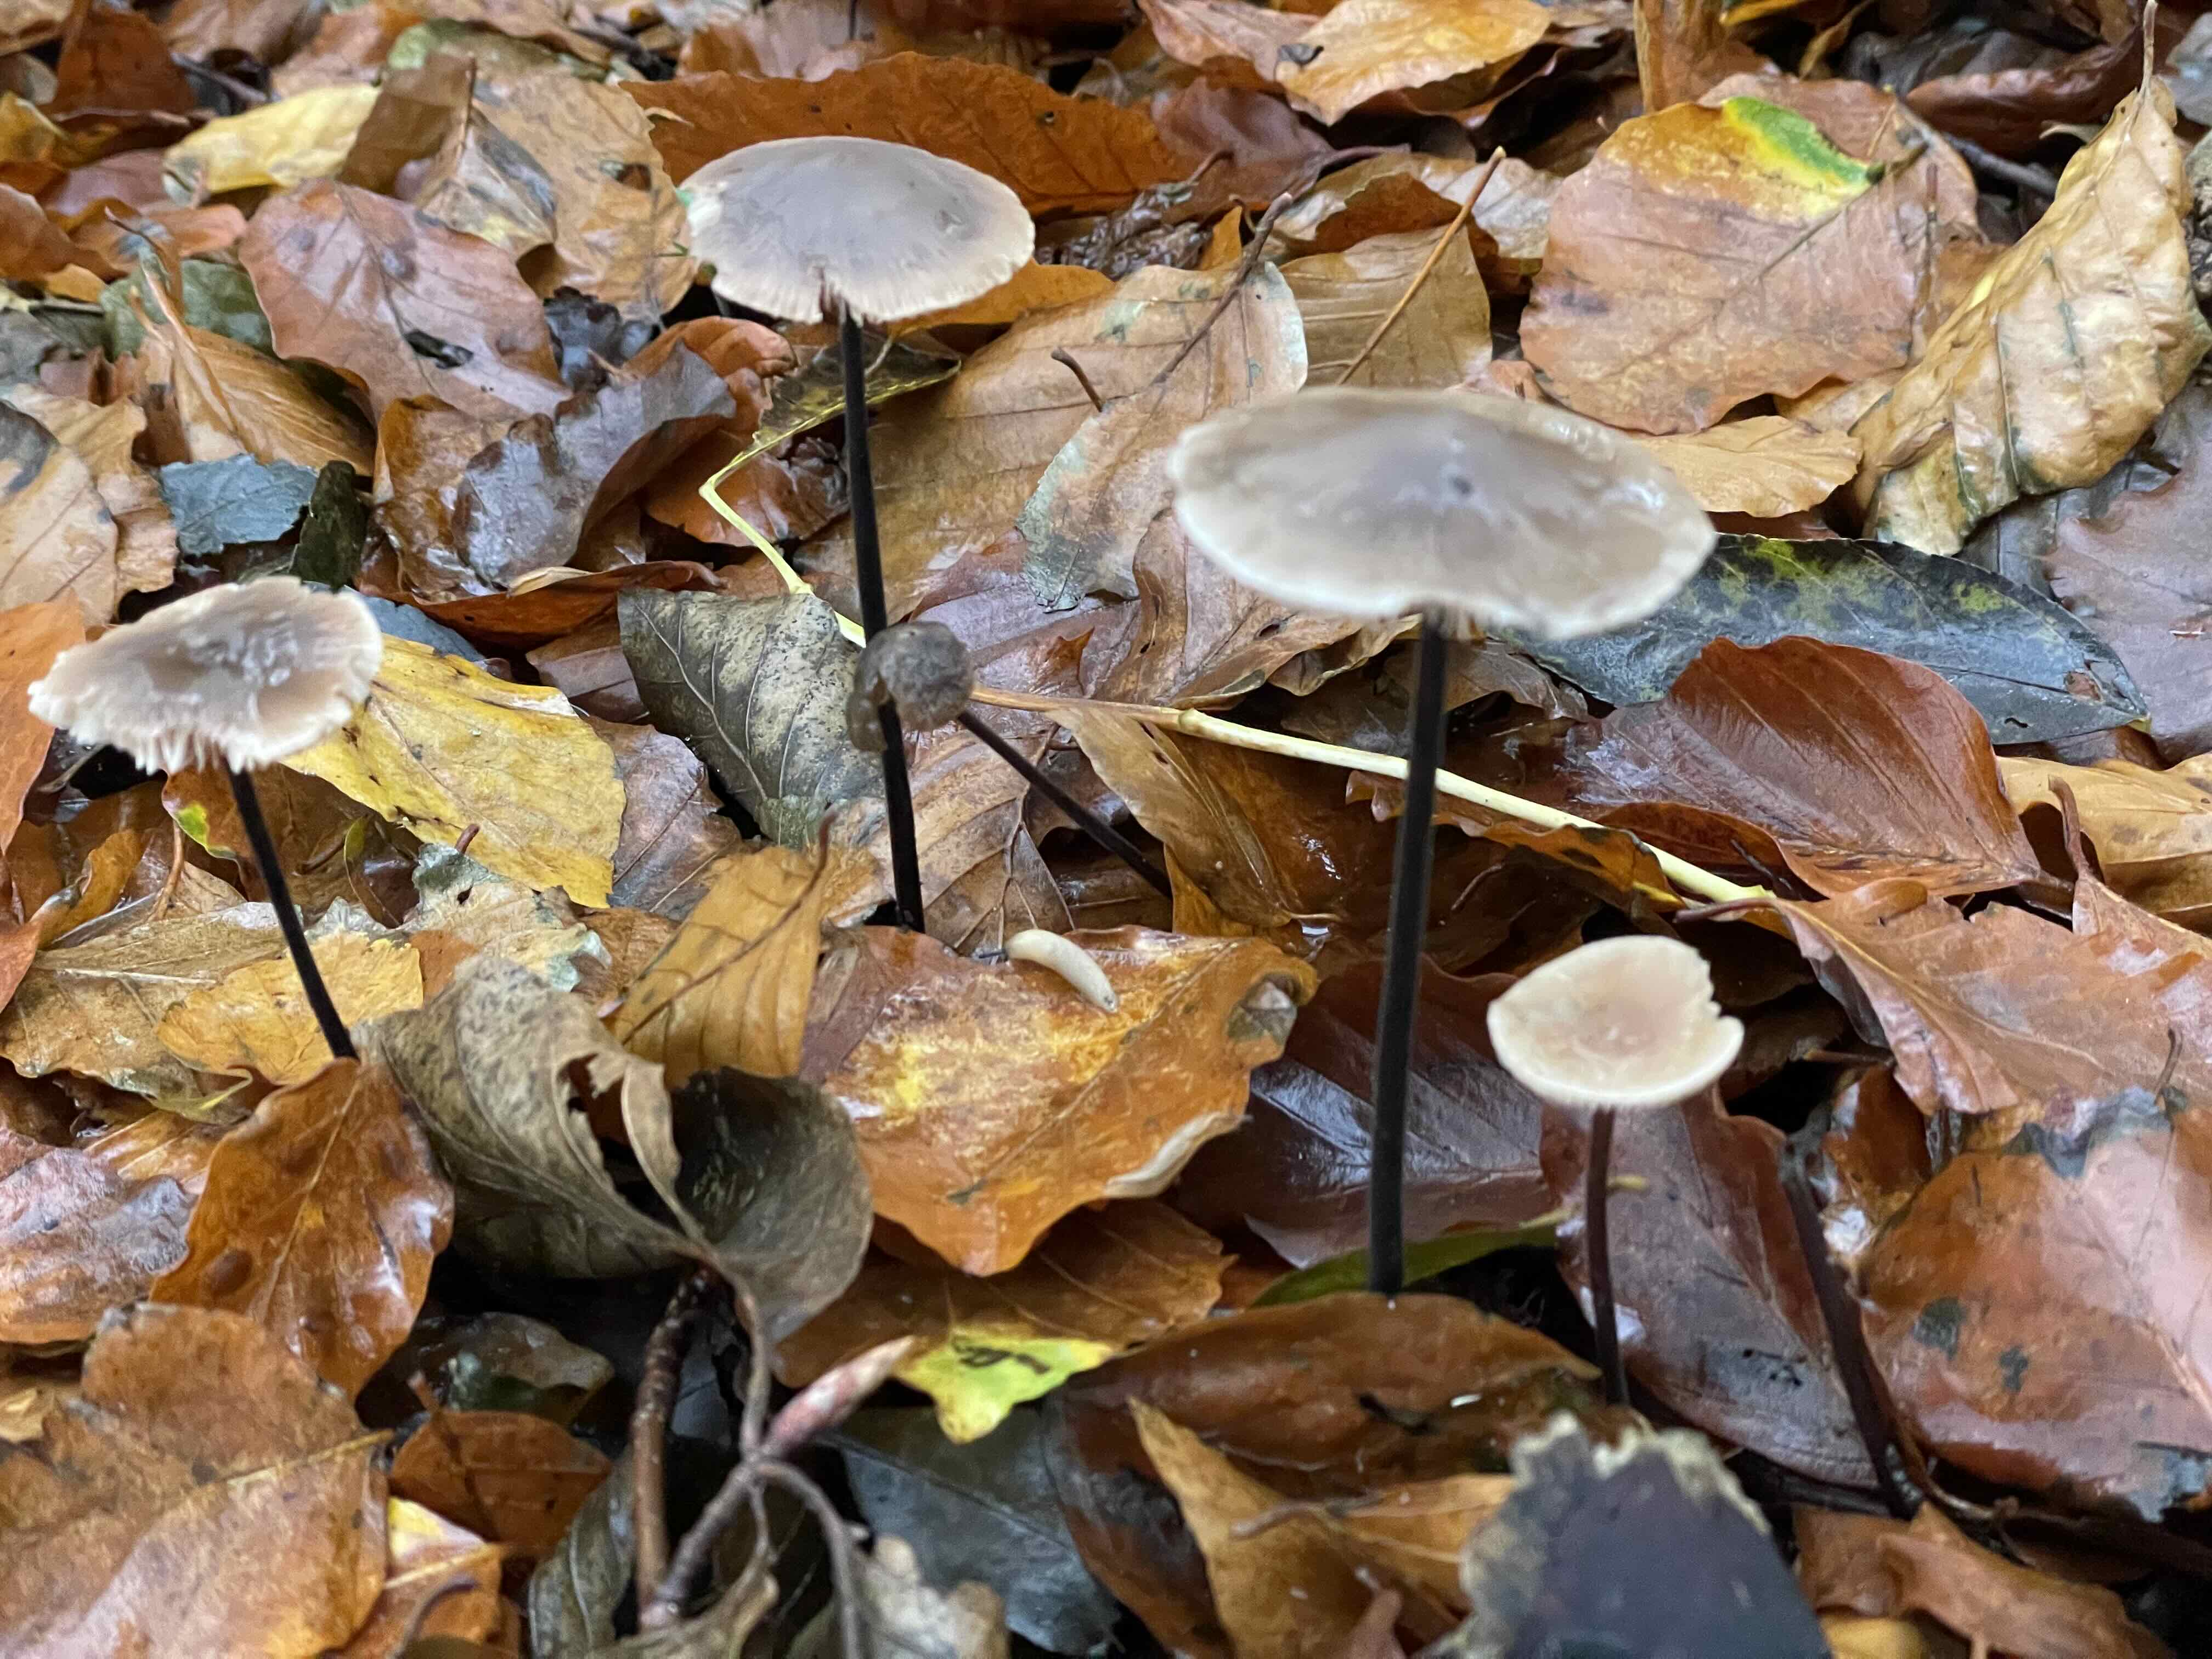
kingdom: Fungi
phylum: Basidiomycota
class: Agaricomycetes
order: Agaricales
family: Omphalotaceae
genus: Mycetinis
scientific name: Mycetinis alliaceus
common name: stor løghat
